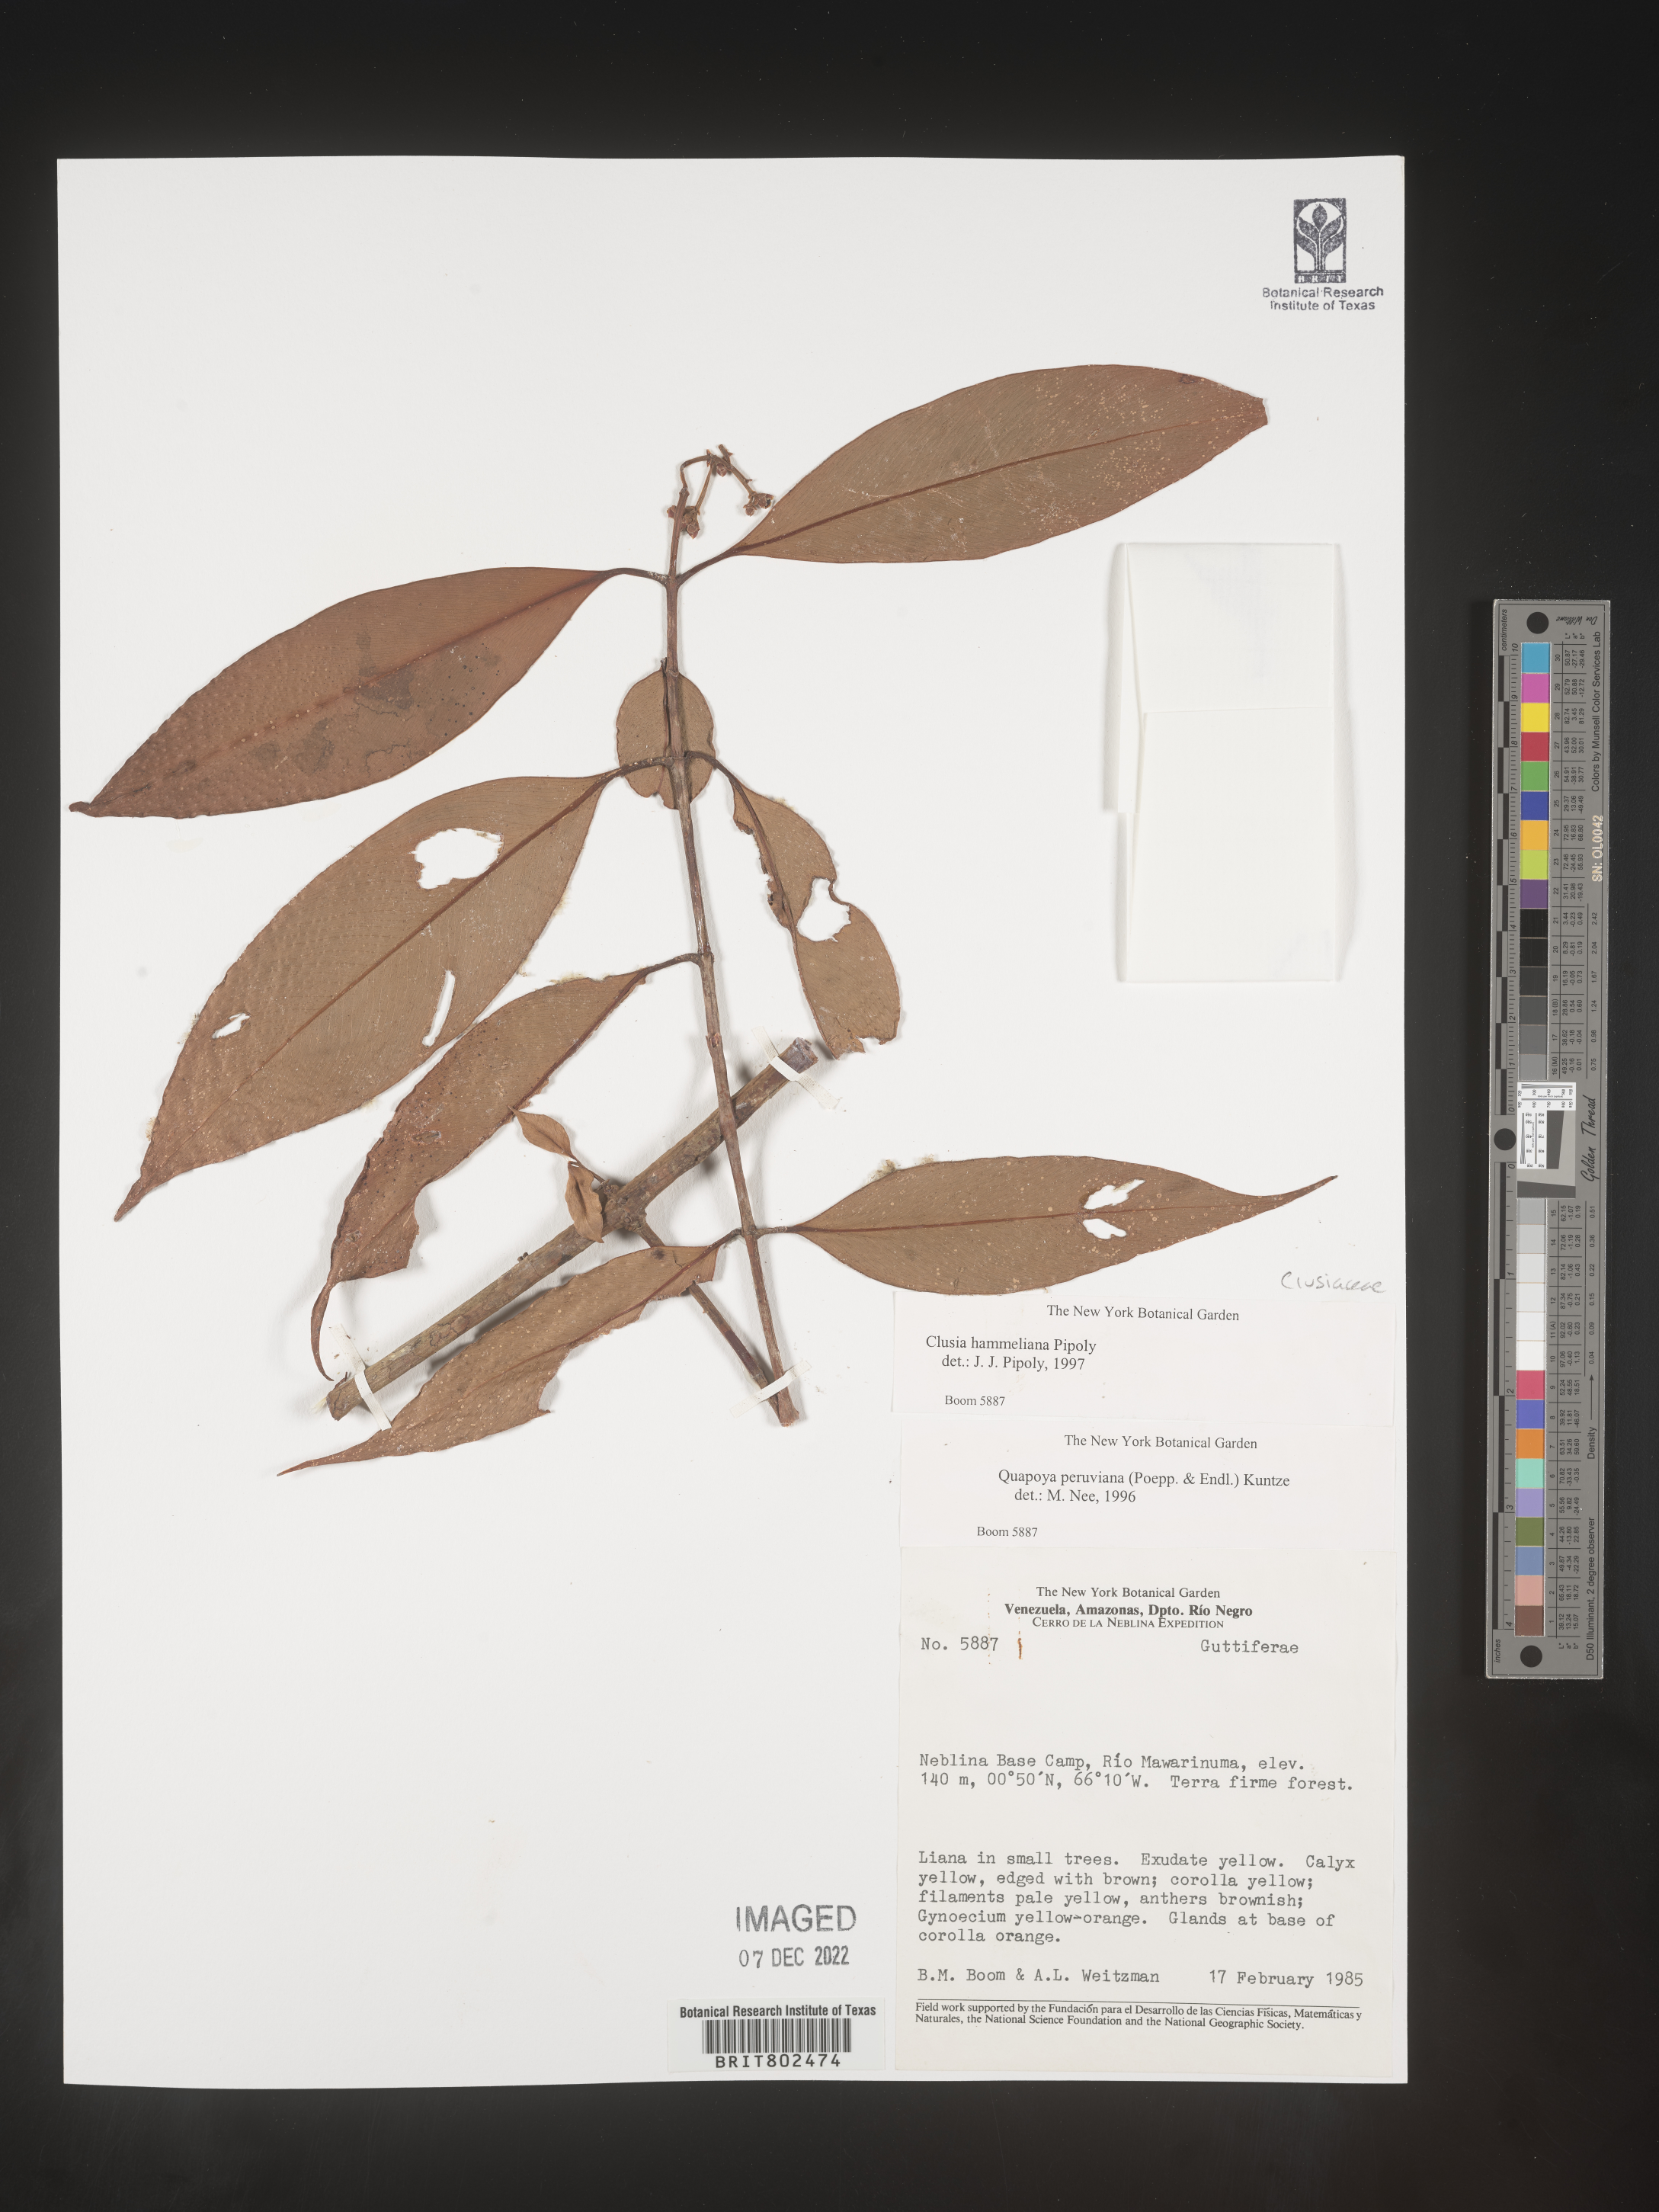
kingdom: Plantae
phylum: Tracheophyta
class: Magnoliopsida
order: Malpighiales
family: Clusiaceae
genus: Clusia
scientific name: Clusia hammeliana
